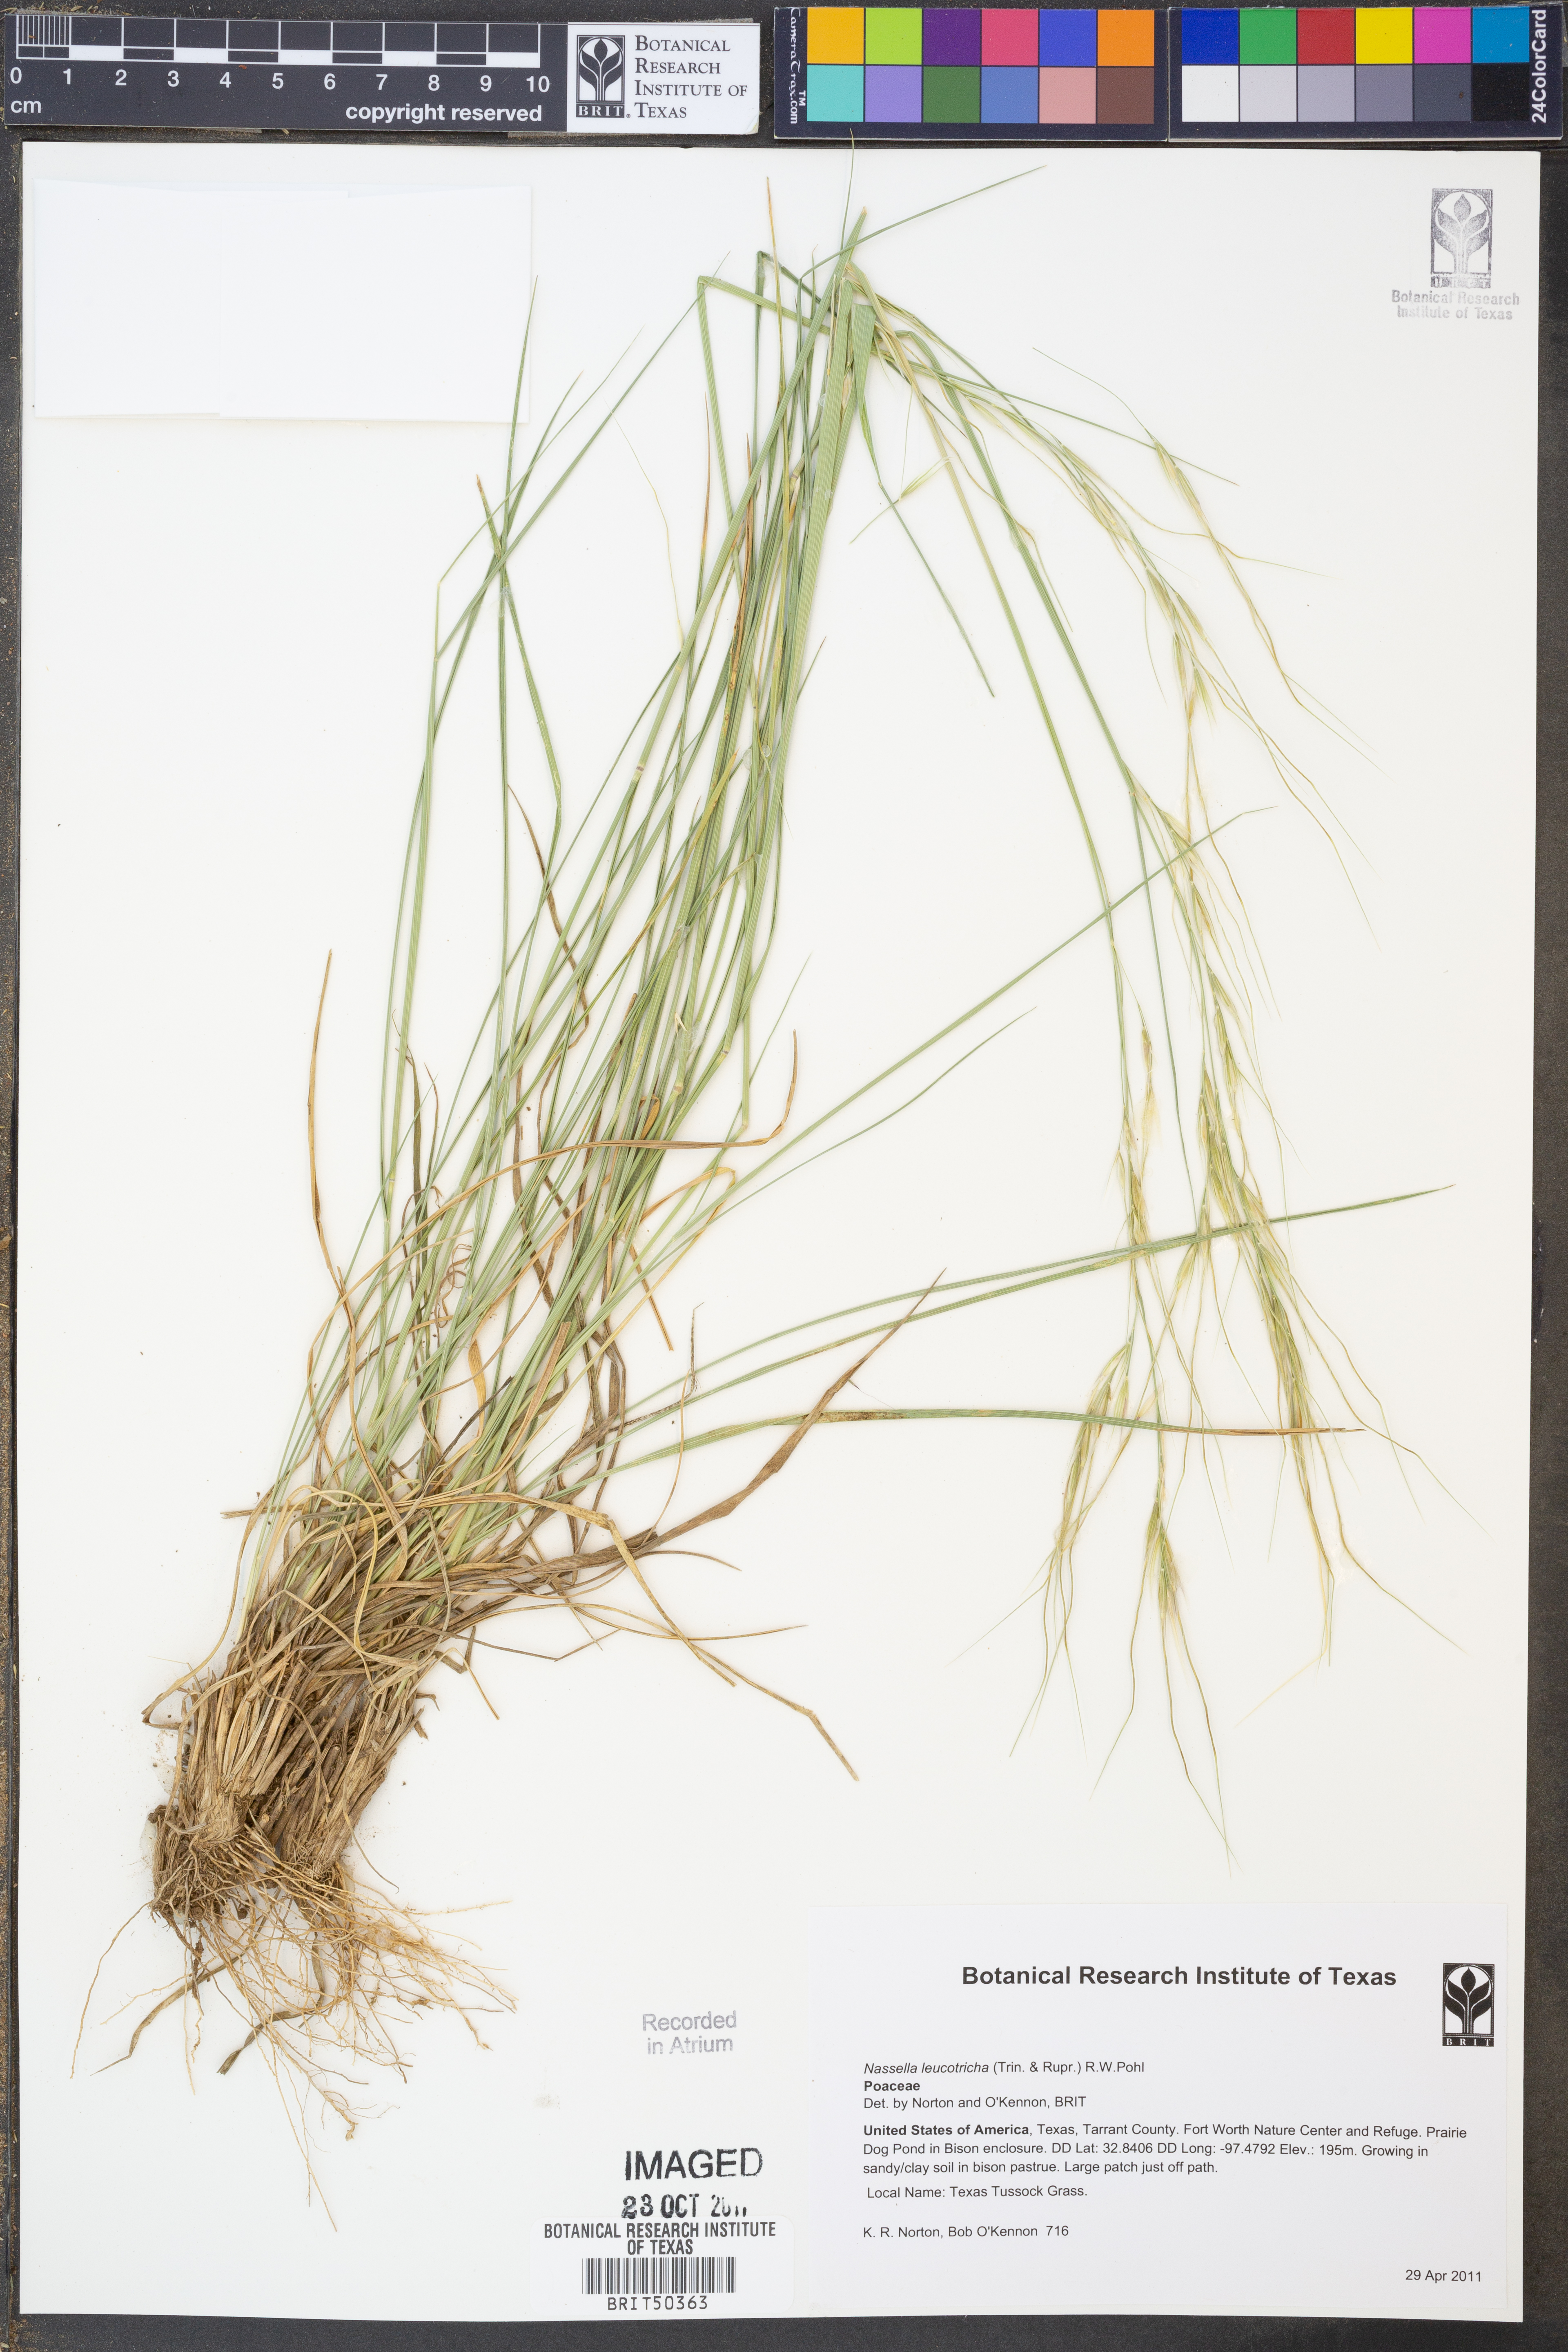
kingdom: Plantae
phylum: Tracheophyta
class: Liliopsida
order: Poales
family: Poaceae
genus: Nassella
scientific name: Nassella leucotricha
